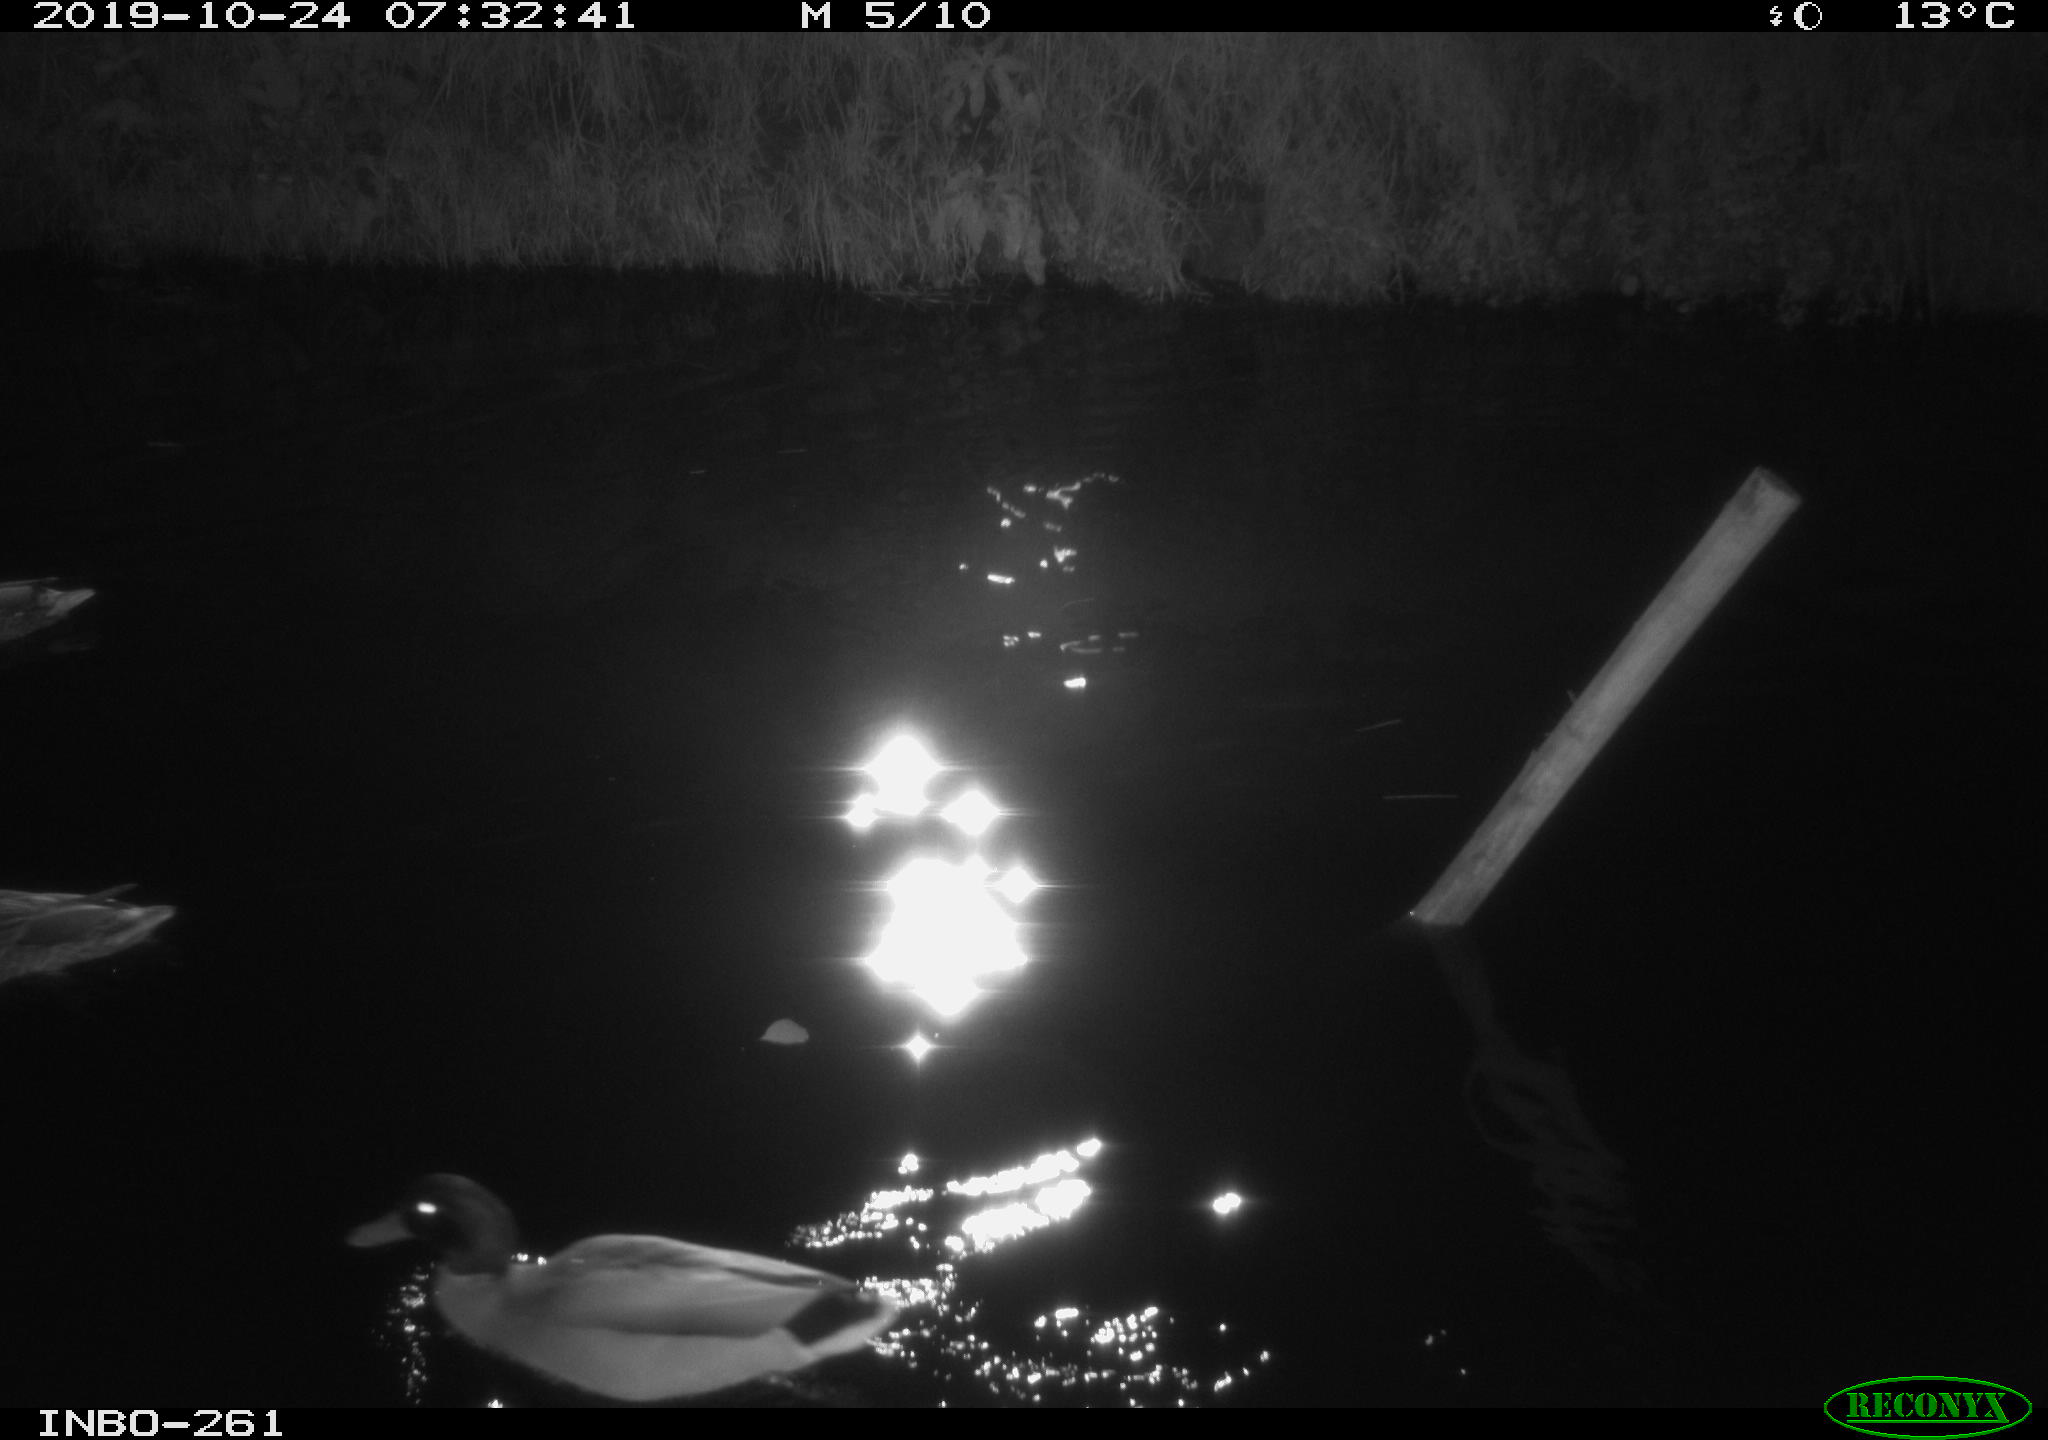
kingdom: Animalia
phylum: Chordata
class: Aves
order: Anseriformes
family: Anatidae
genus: Anas
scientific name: Anas platyrhynchos
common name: Mallard
